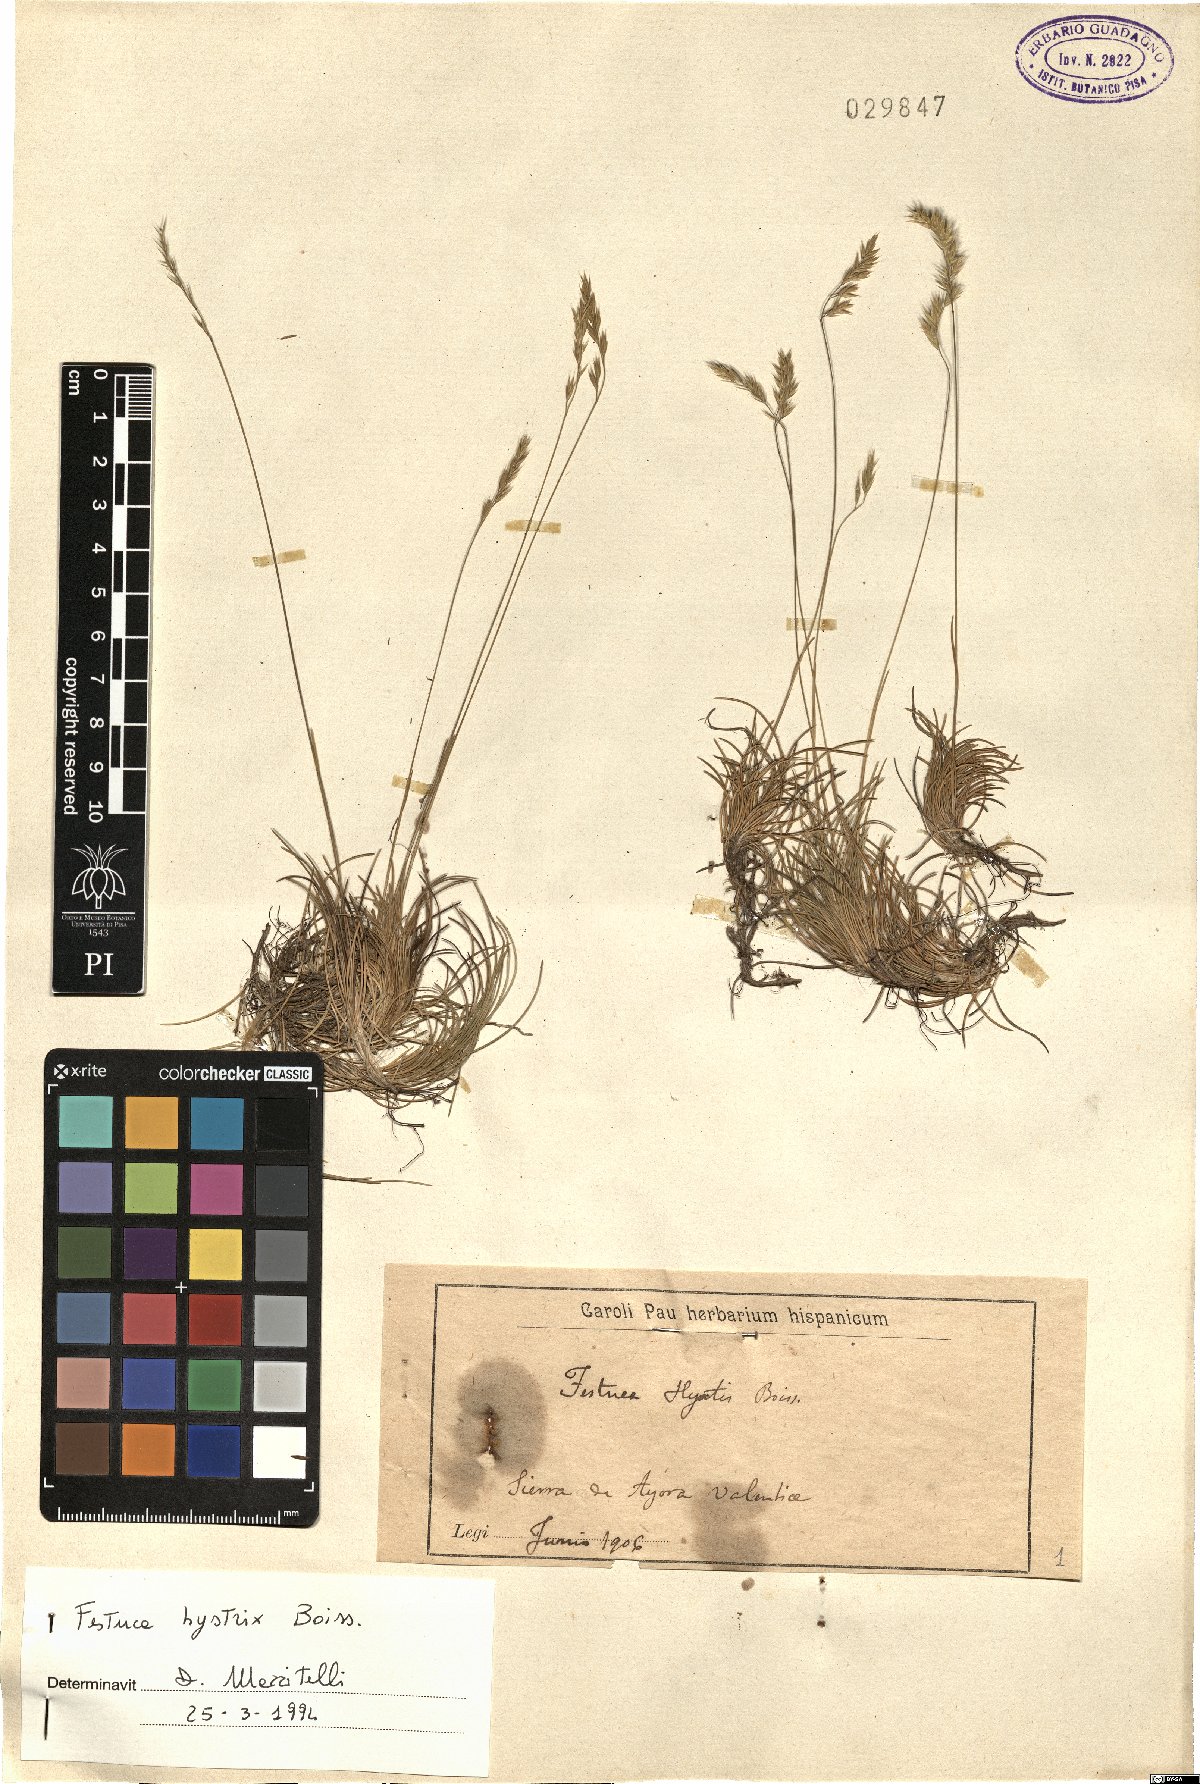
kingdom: Plantae
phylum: Tracheophyta
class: Liliopsida
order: Poales
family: Poaceae
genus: Festuca
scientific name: Festuca hystrix
